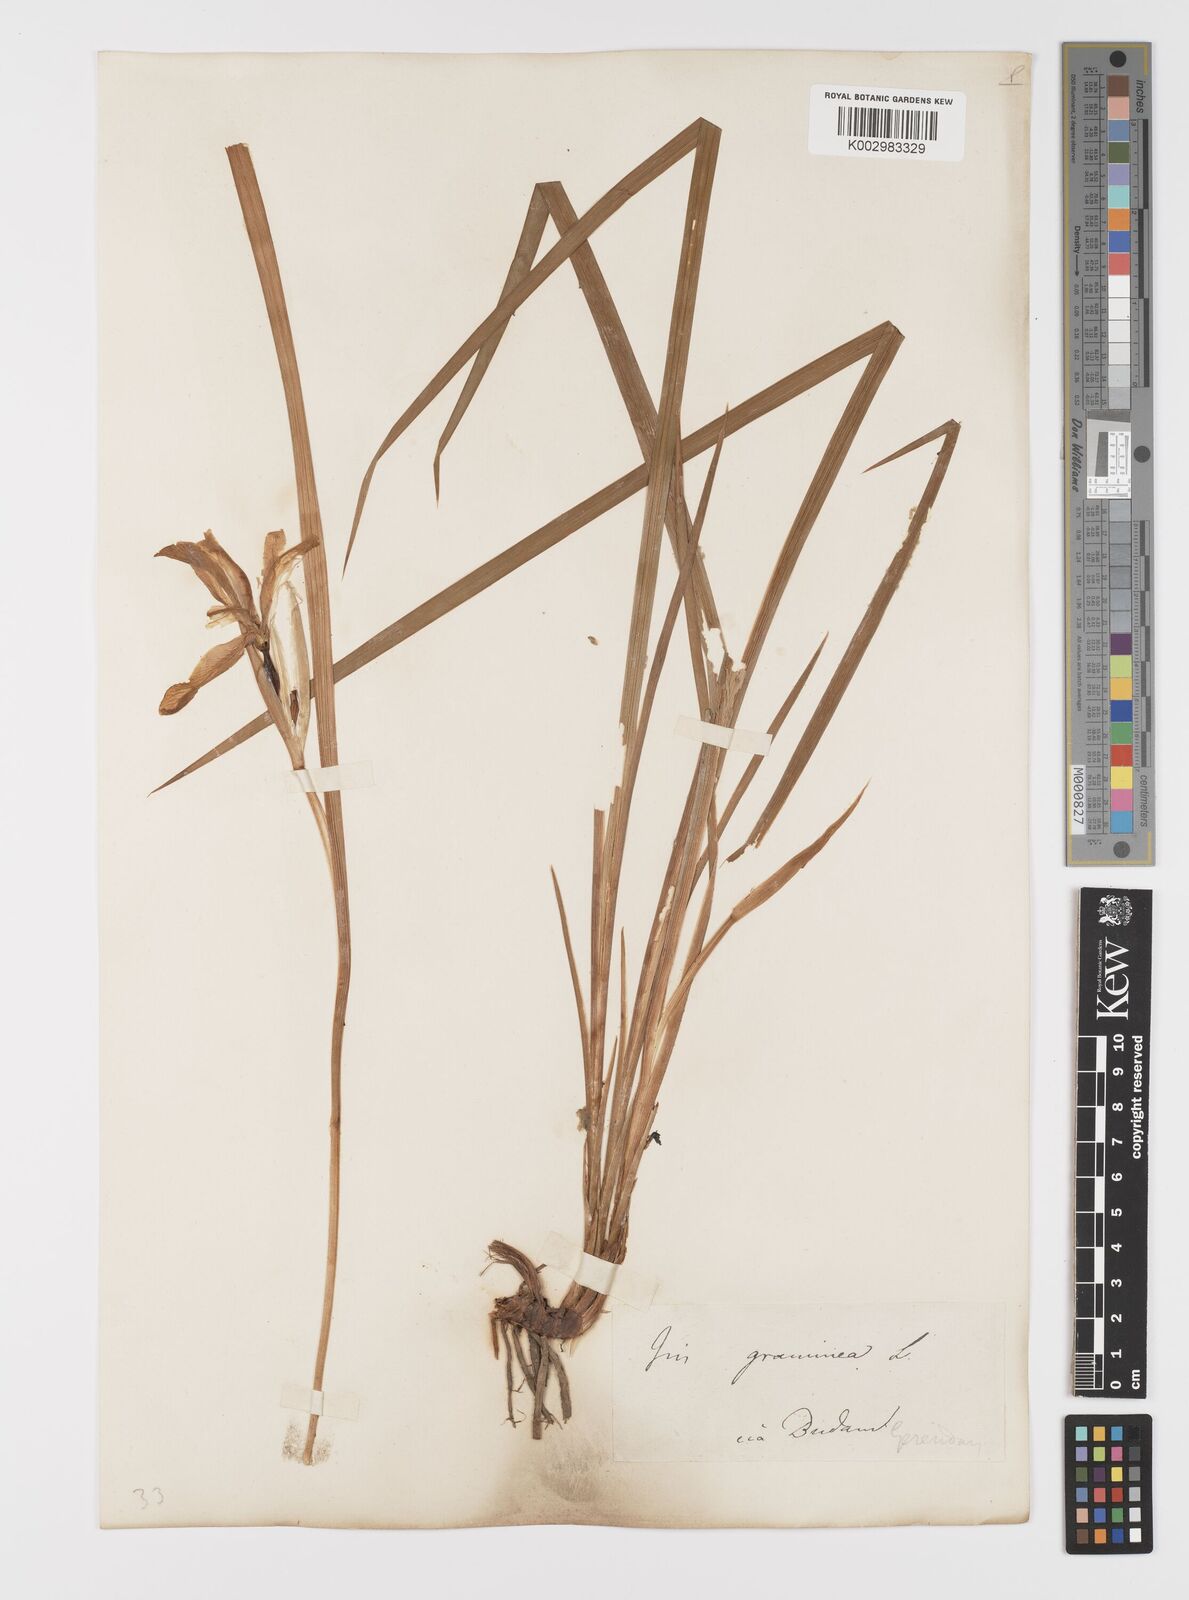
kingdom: Plantae
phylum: Tracheophyta
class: Liliopsida
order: Asparagales
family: Iridaceae
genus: Iris
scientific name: Iris graminea
